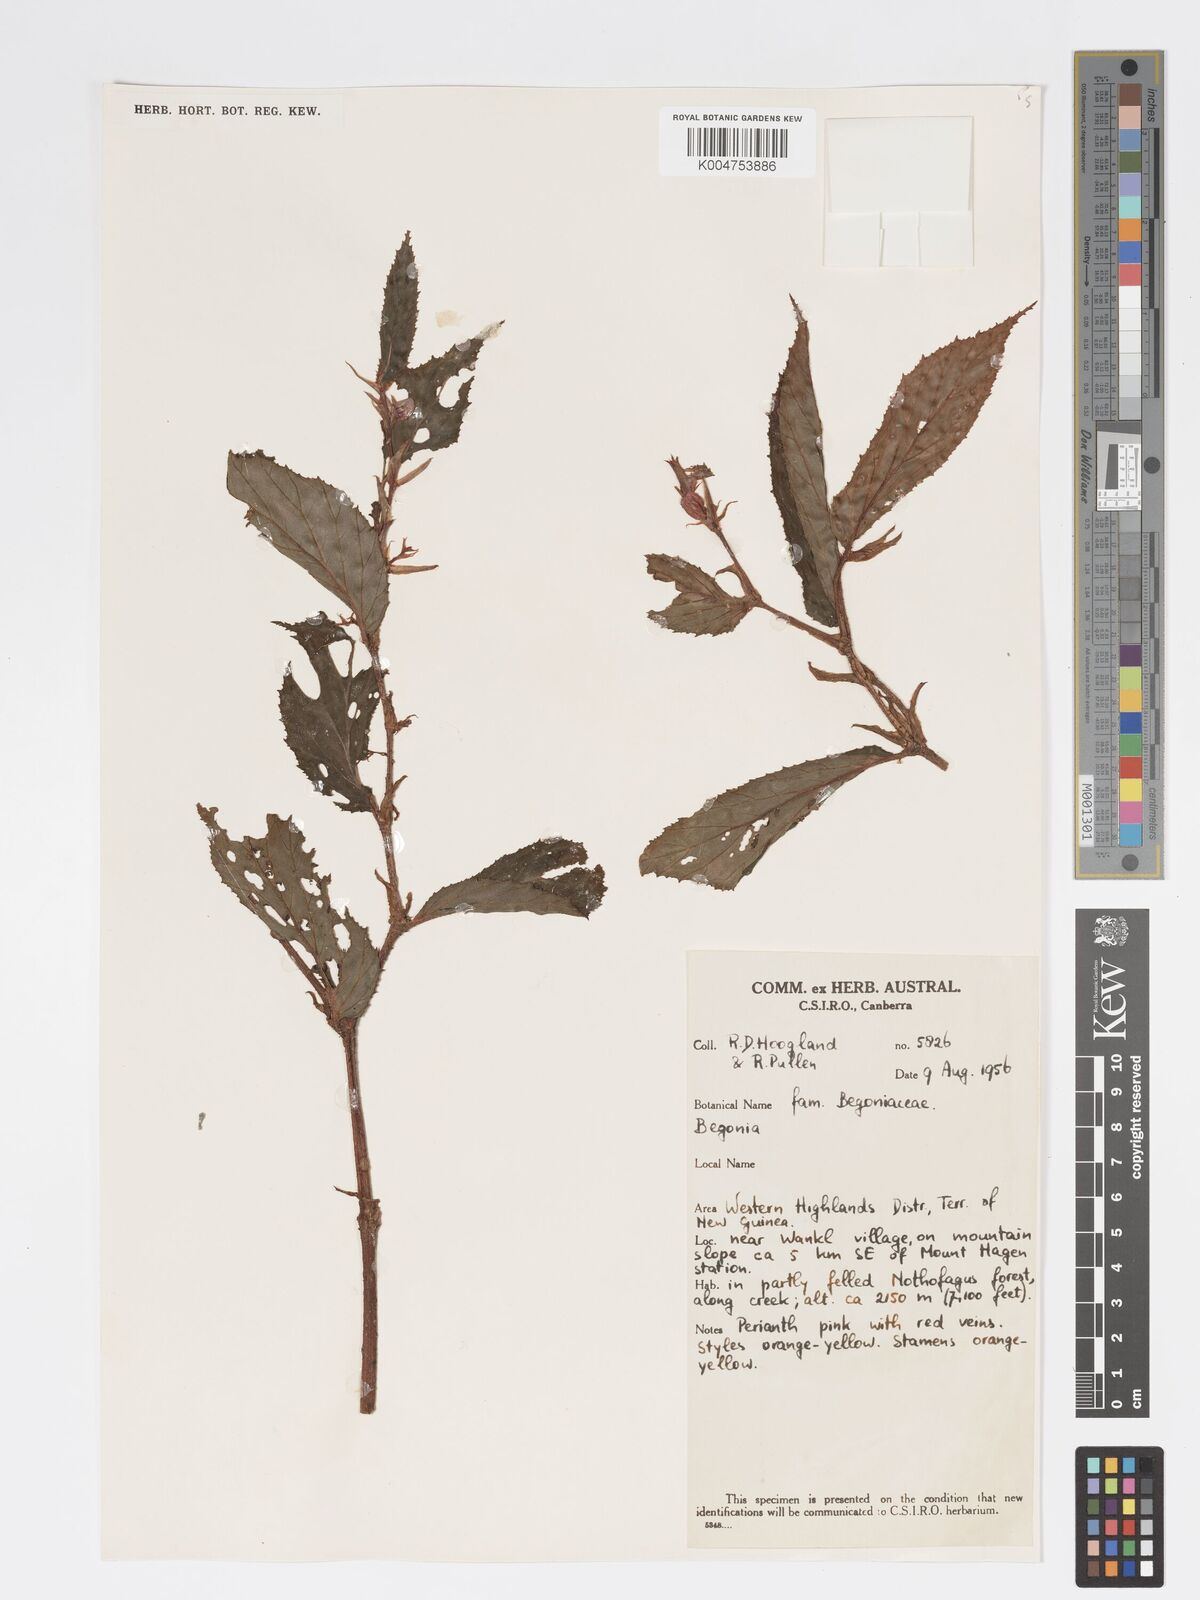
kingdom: Plantae
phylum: Tracheophyta
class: Magnoliopsida
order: Cucurbitales
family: Begoniaceae
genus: Begonia
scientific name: Begonia
